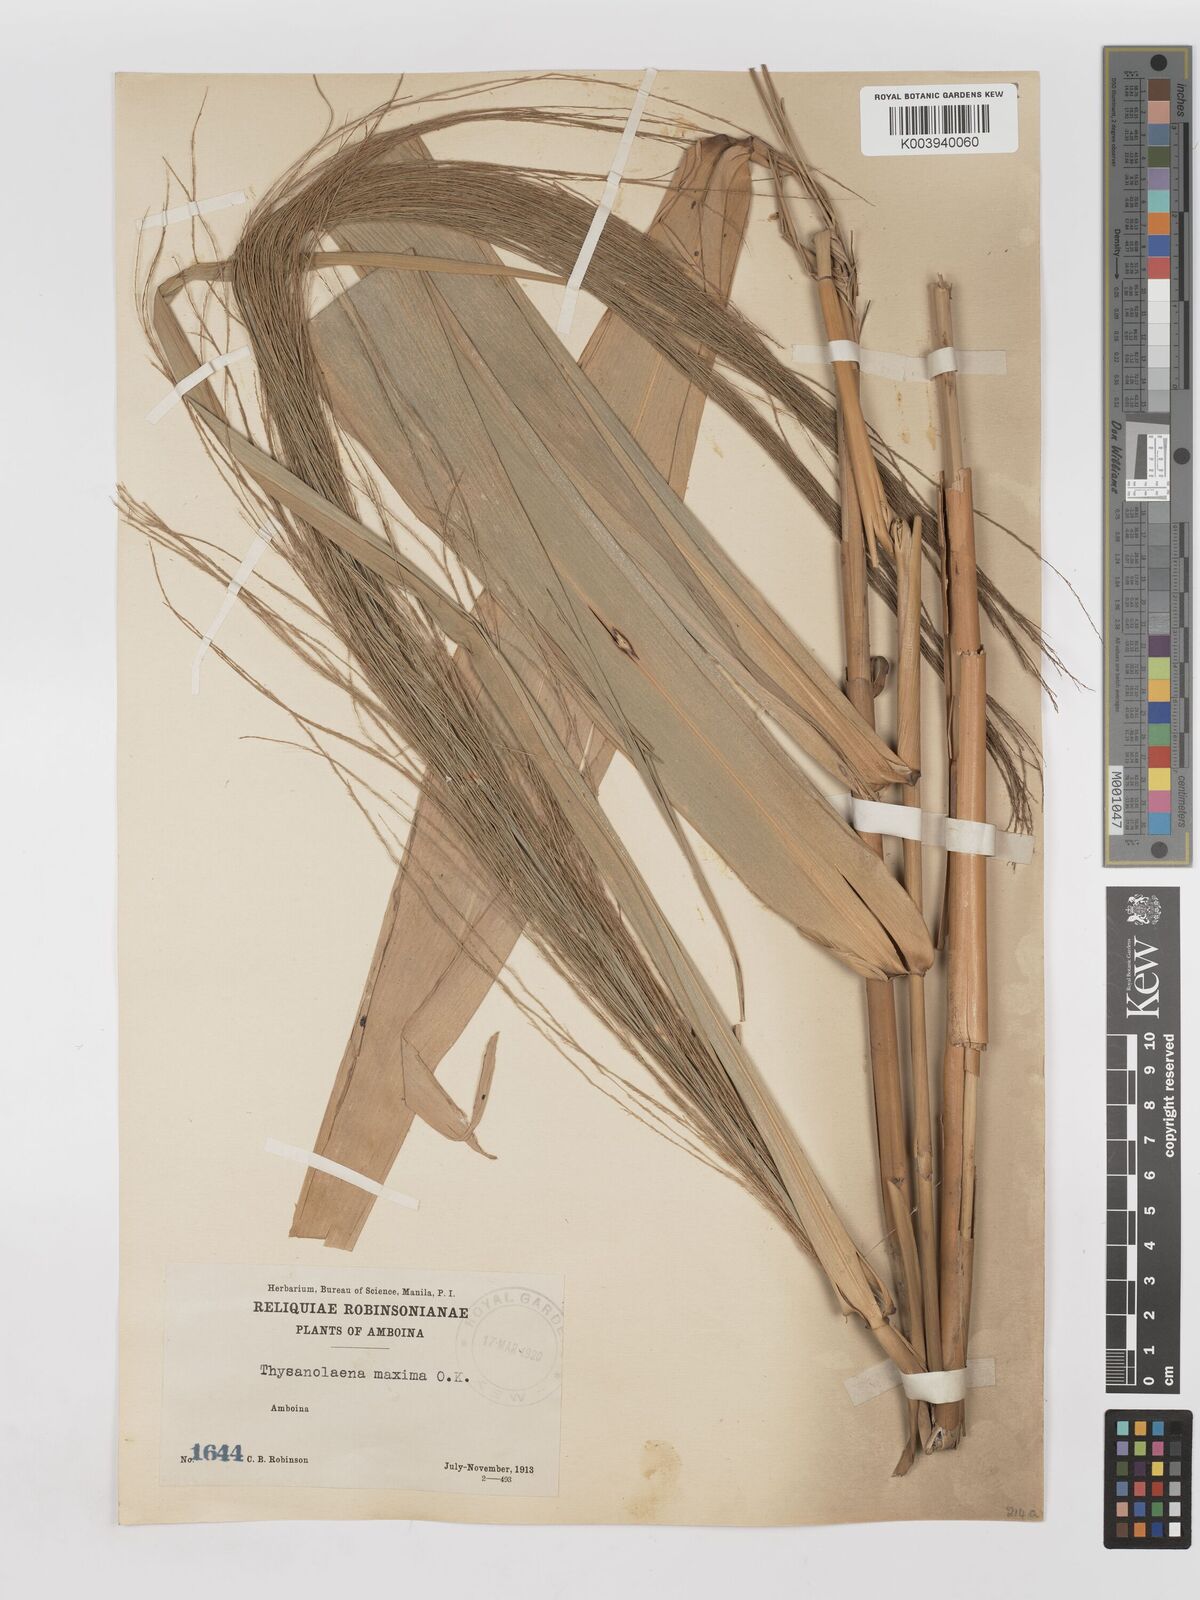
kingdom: Plantae
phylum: Tracheophyta
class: Liliopsida
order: Poales
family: Poaceae
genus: Thysanolaena
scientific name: Thysanolaena latifolia
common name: Tiger grass
